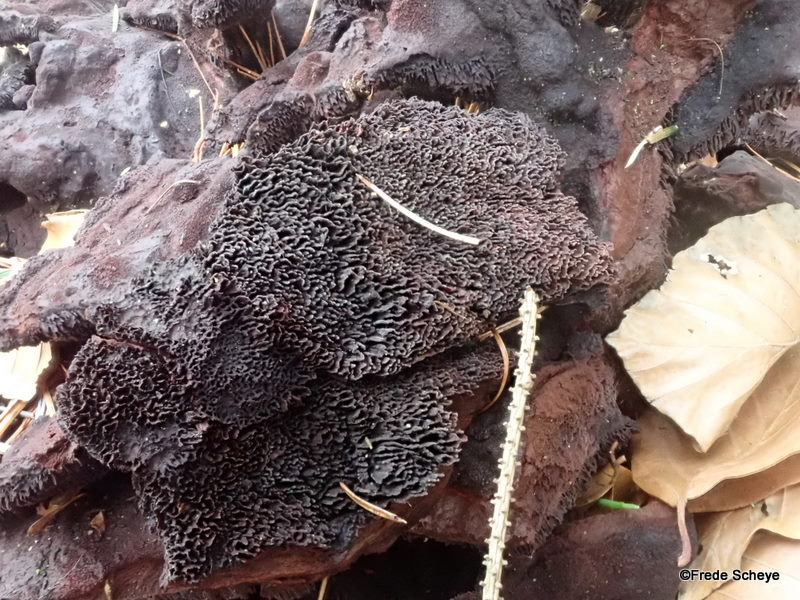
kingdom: Fungi
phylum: Basidiomycota
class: Agaricomycetes
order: Polyporales
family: Laetiporaceae
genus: Phaeolus
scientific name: Phaeolus schweinitzii
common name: brunporesvamp
